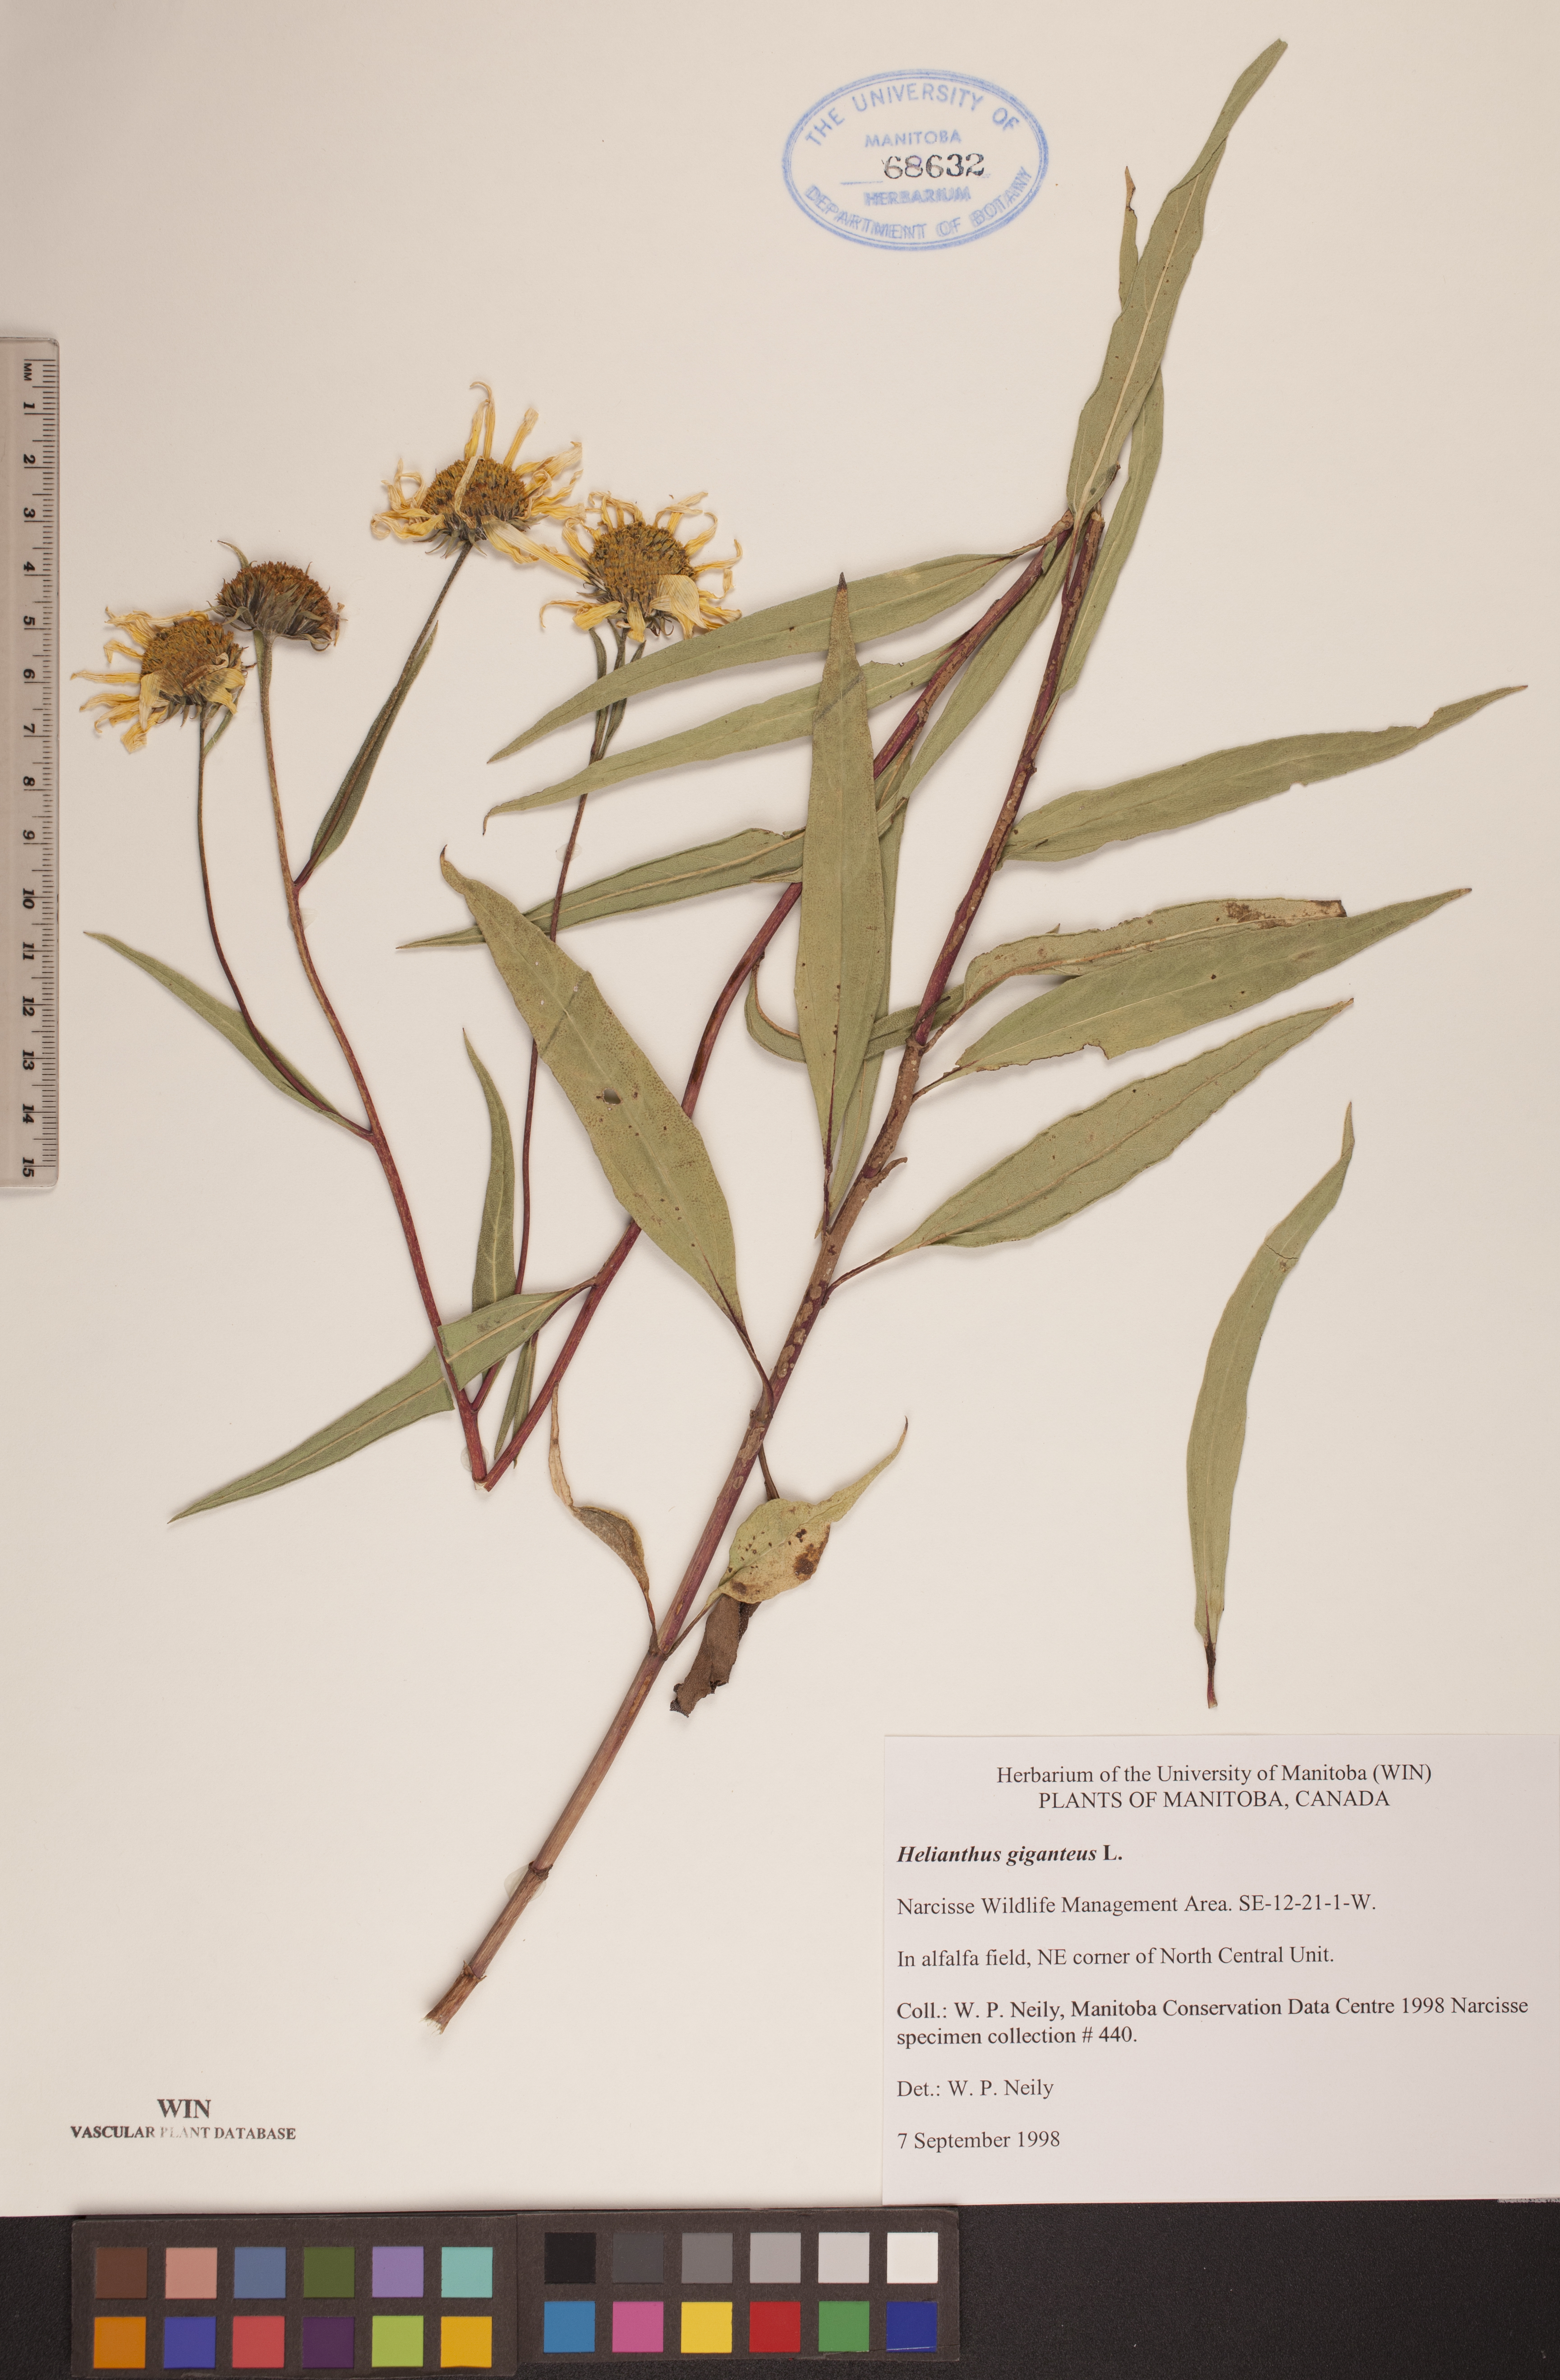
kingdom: Plantae
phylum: Tracheophyta
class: Magnoliopsida
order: Asterales
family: Asteraceae
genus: Helianthus
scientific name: Helianthus giganteus
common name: Giant sunflower
